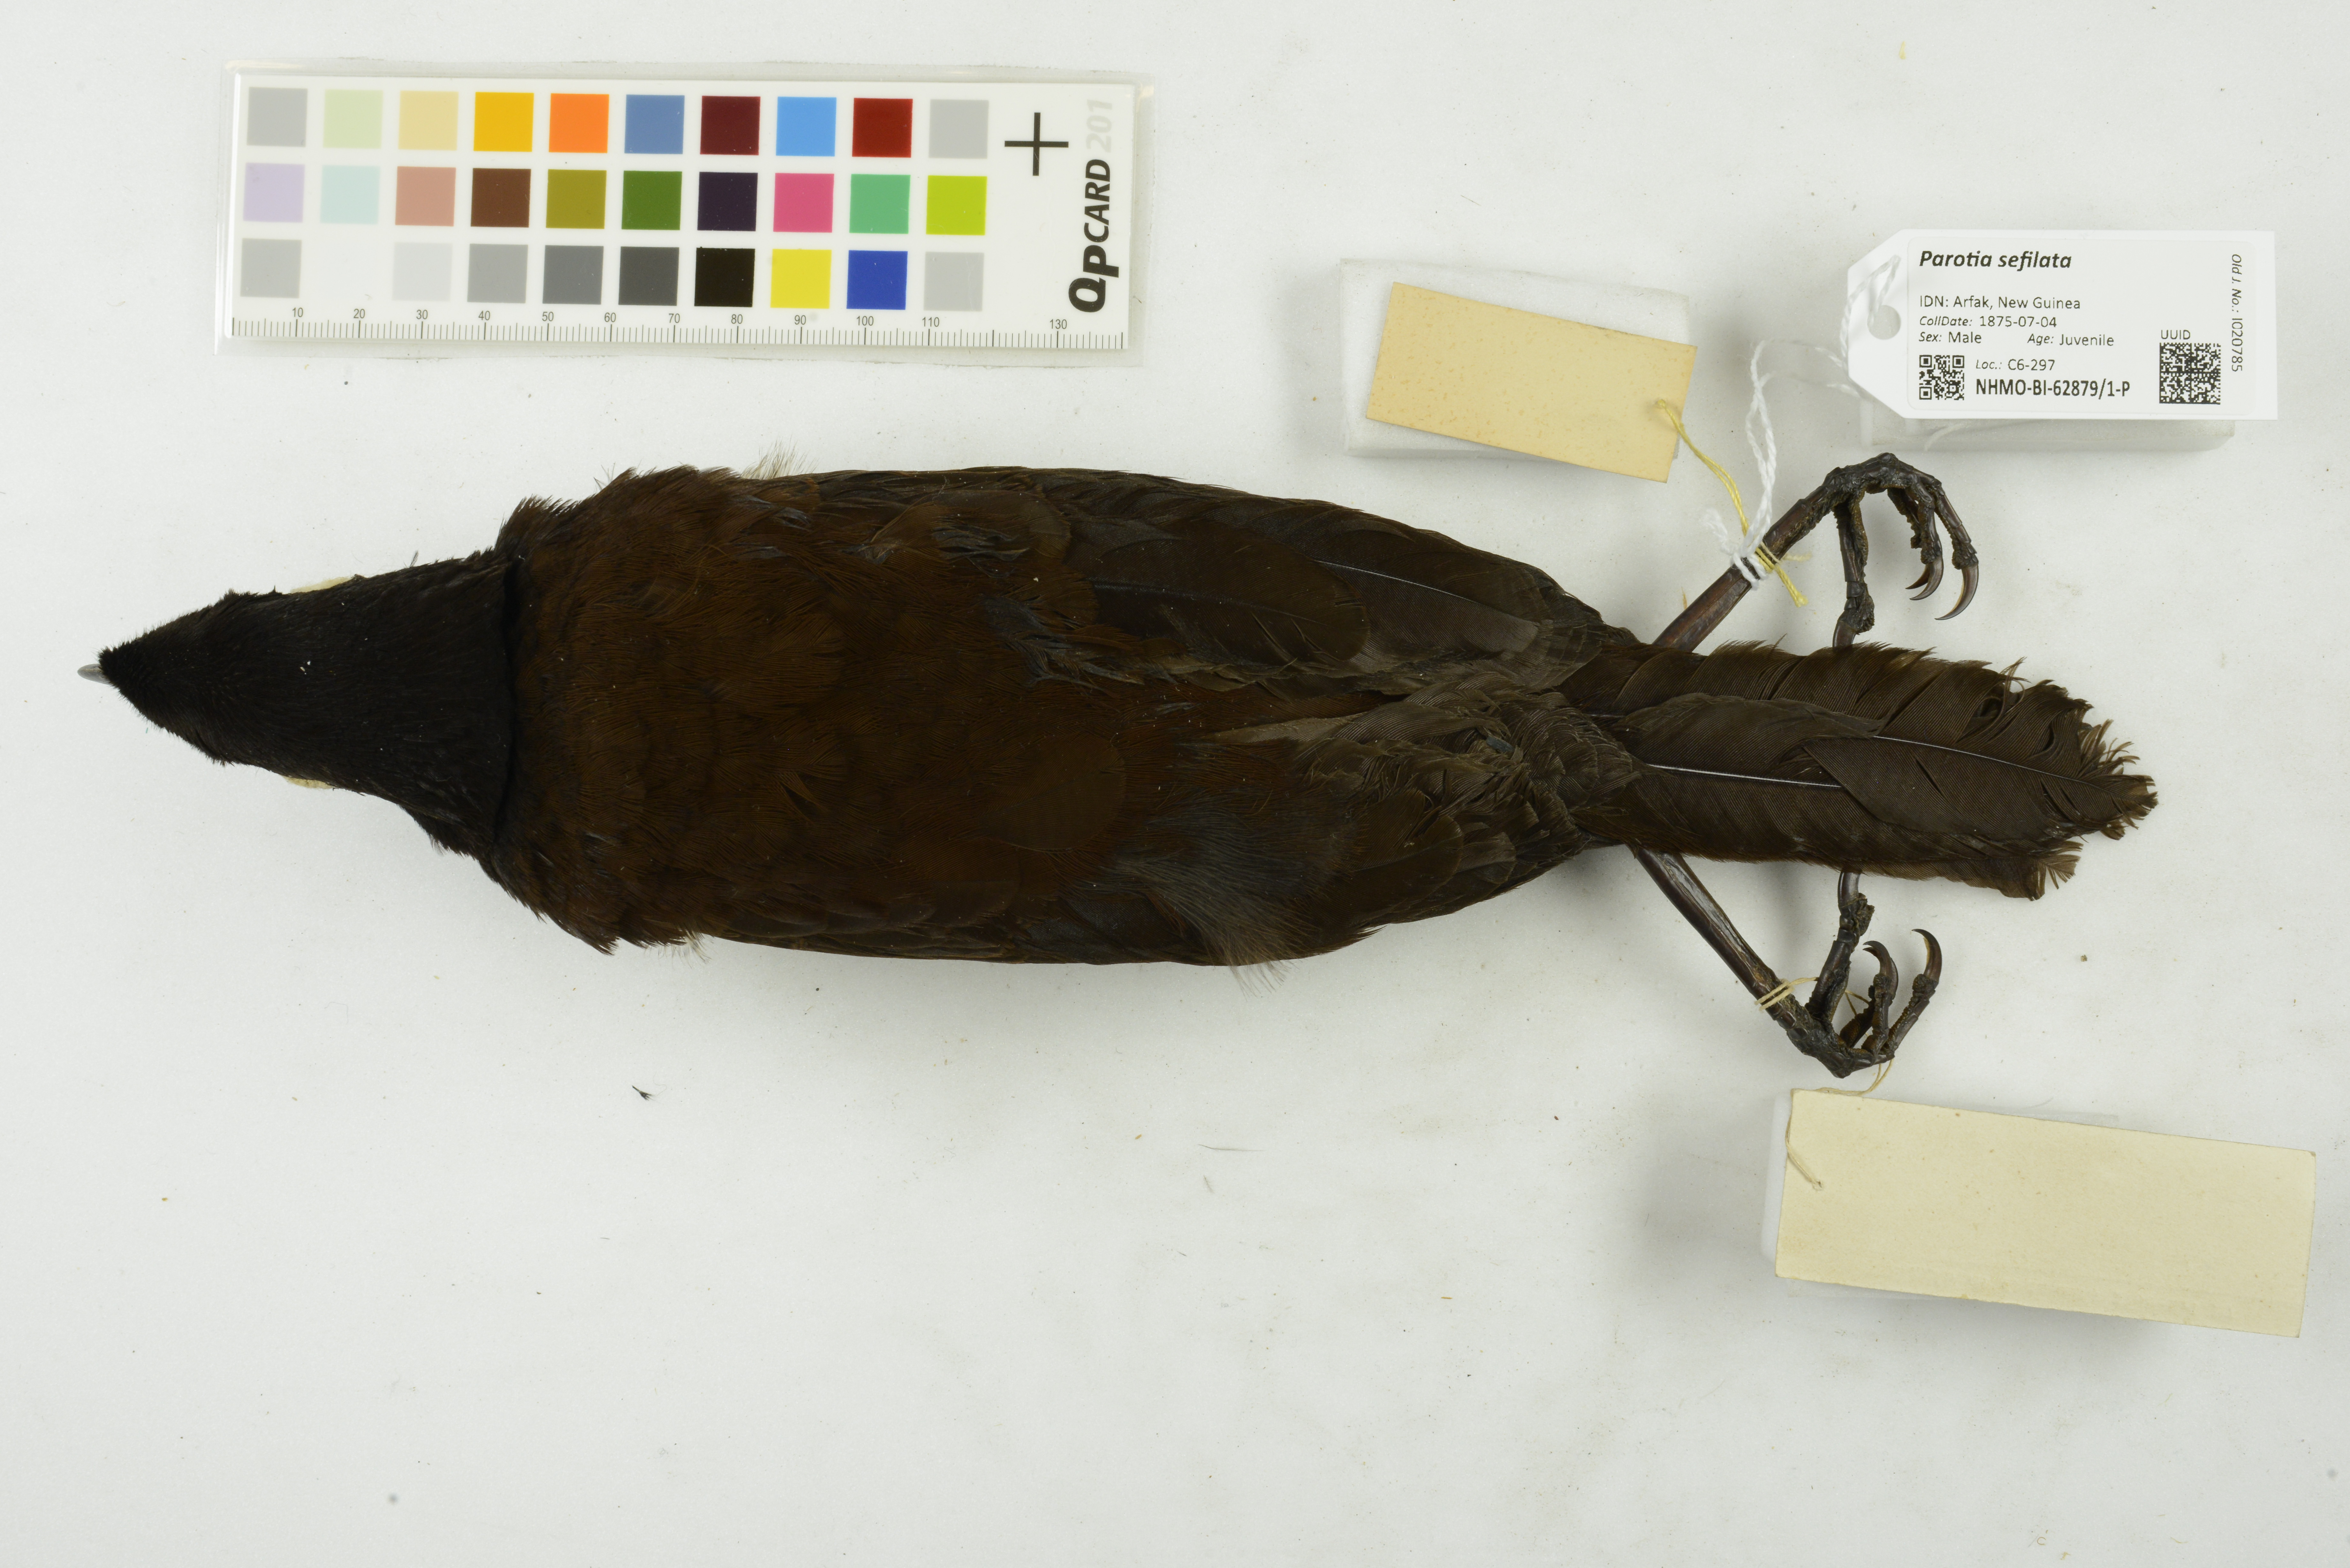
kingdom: Animalia
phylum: Chordata
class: Aves
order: Passeriformes
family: Paradisaeidae
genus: Parotia
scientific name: Parotia sefilata
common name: Western parotia
